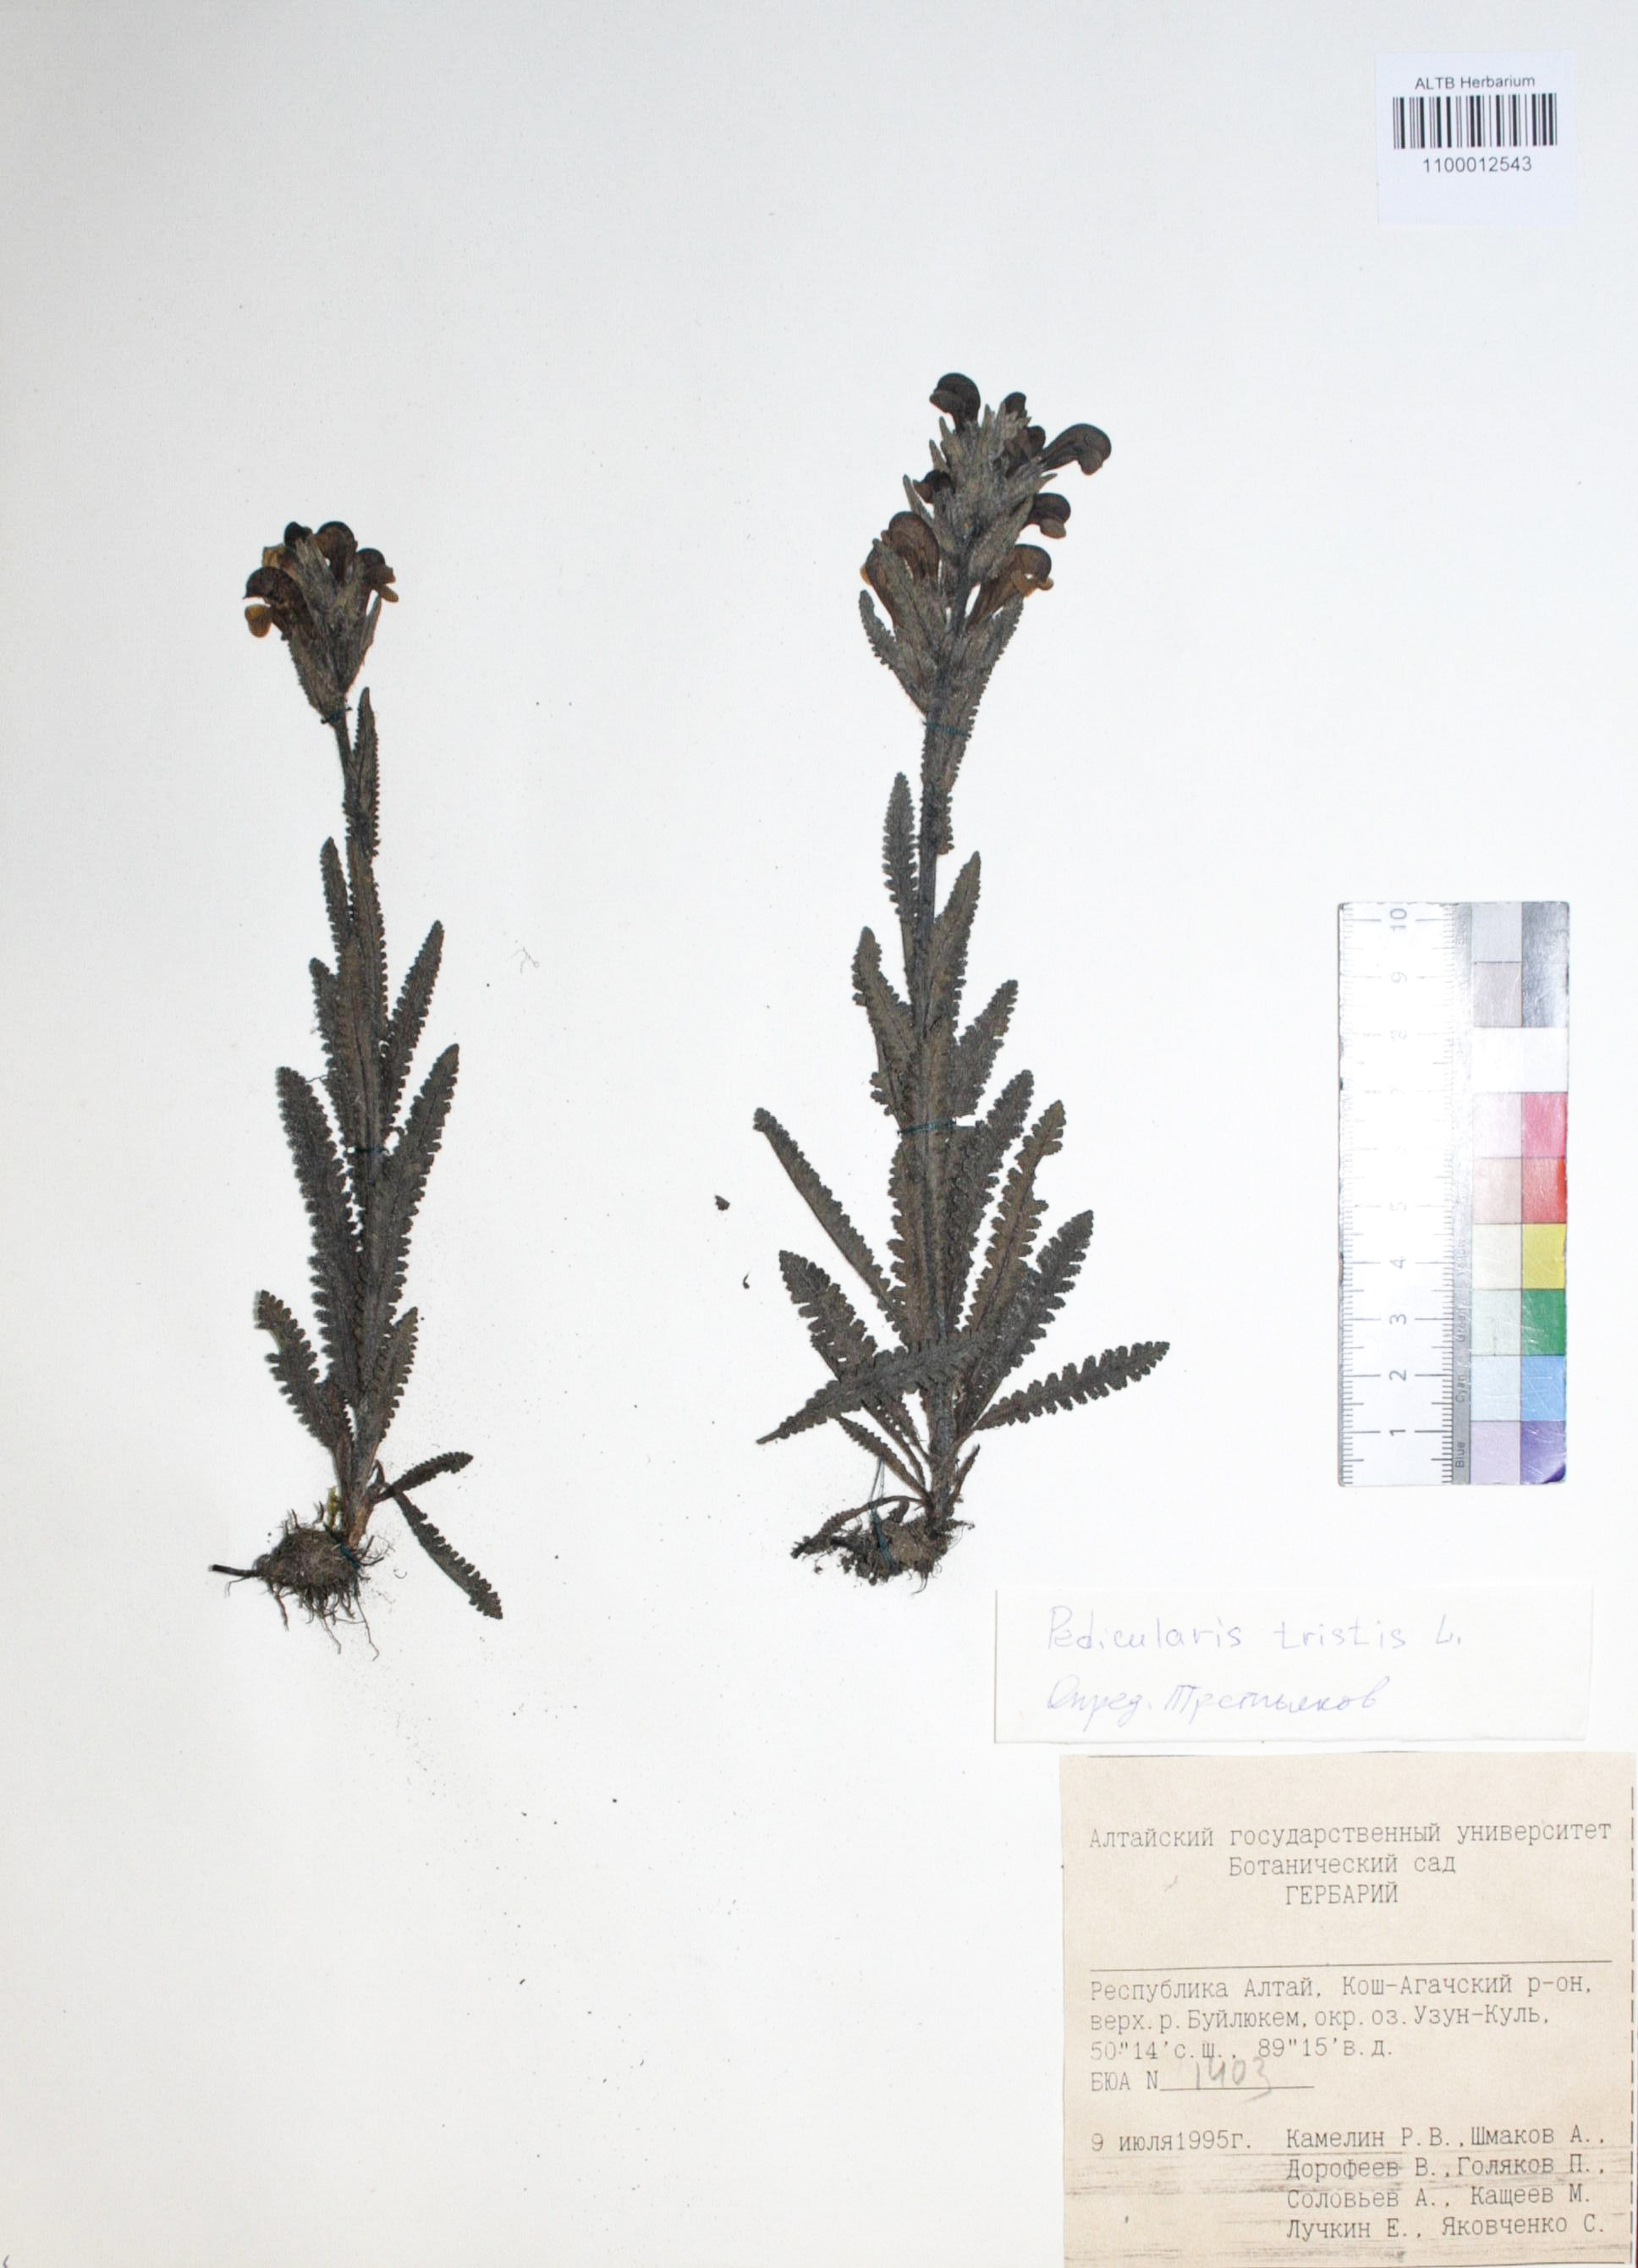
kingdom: Plantae
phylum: Tracheophyta
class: Magnoliopsida
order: Lamiales
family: Orobanchaceae
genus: Pedicularis
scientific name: Pedicularis tristis
